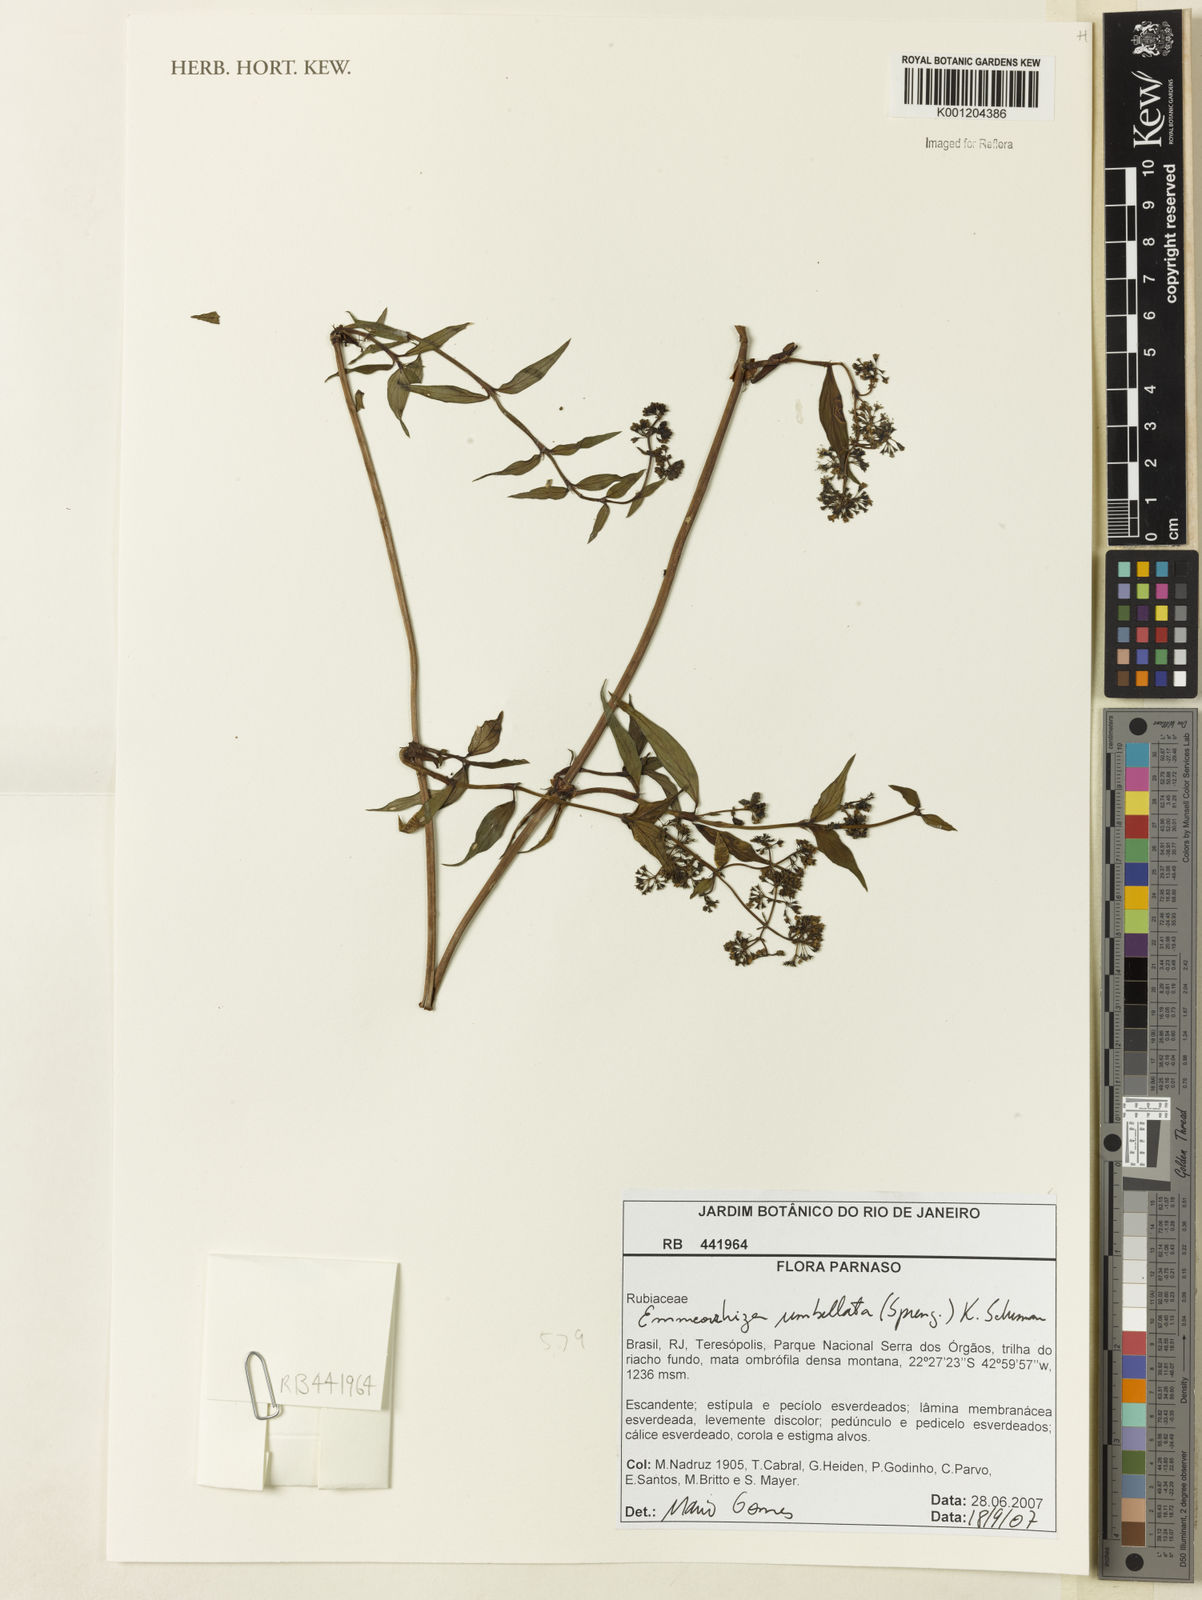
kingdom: Plantae
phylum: Tracheophyta
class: Magnoliopsida
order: Gentianales
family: Rubiaceae
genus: Emmeorhiza
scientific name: Emmeorhiza umbellata
